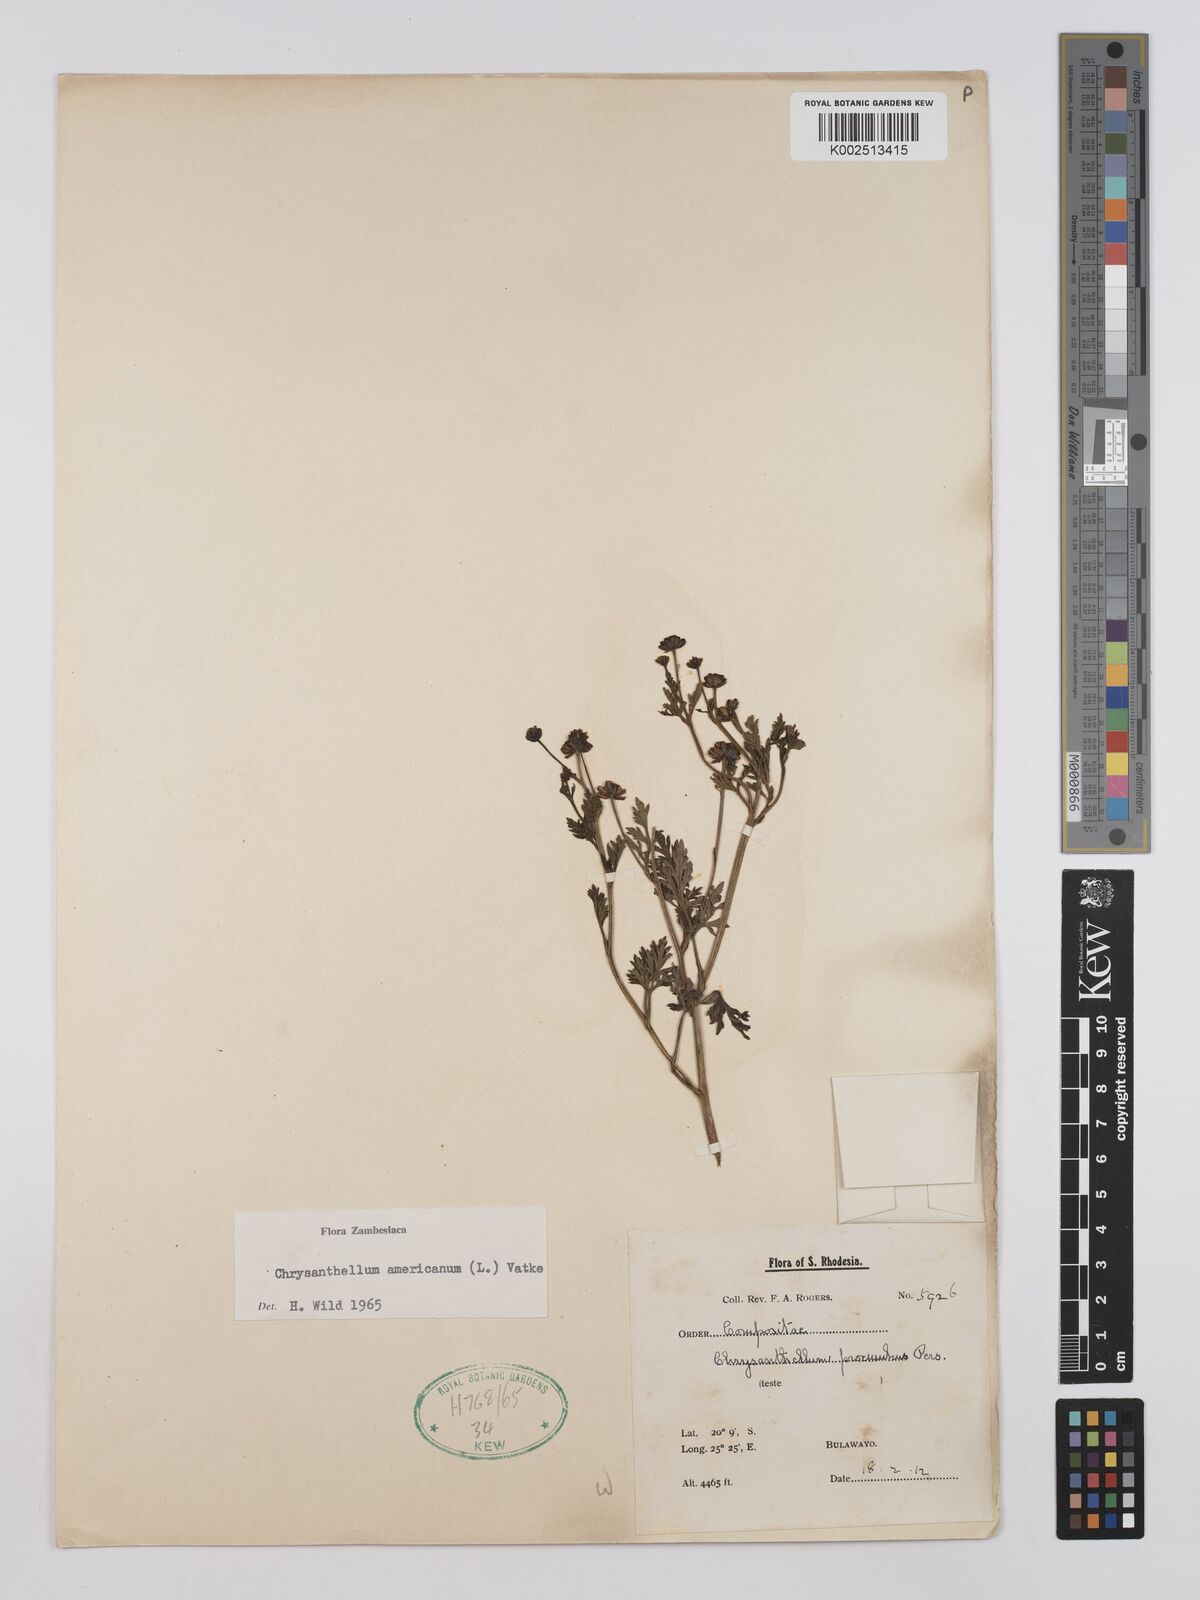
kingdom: Plantae
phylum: Tracheophyta
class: Magnoliopsida
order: Asterales
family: Asteraceae
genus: Chrysanthellum
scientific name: Chrysanthellum indicum
